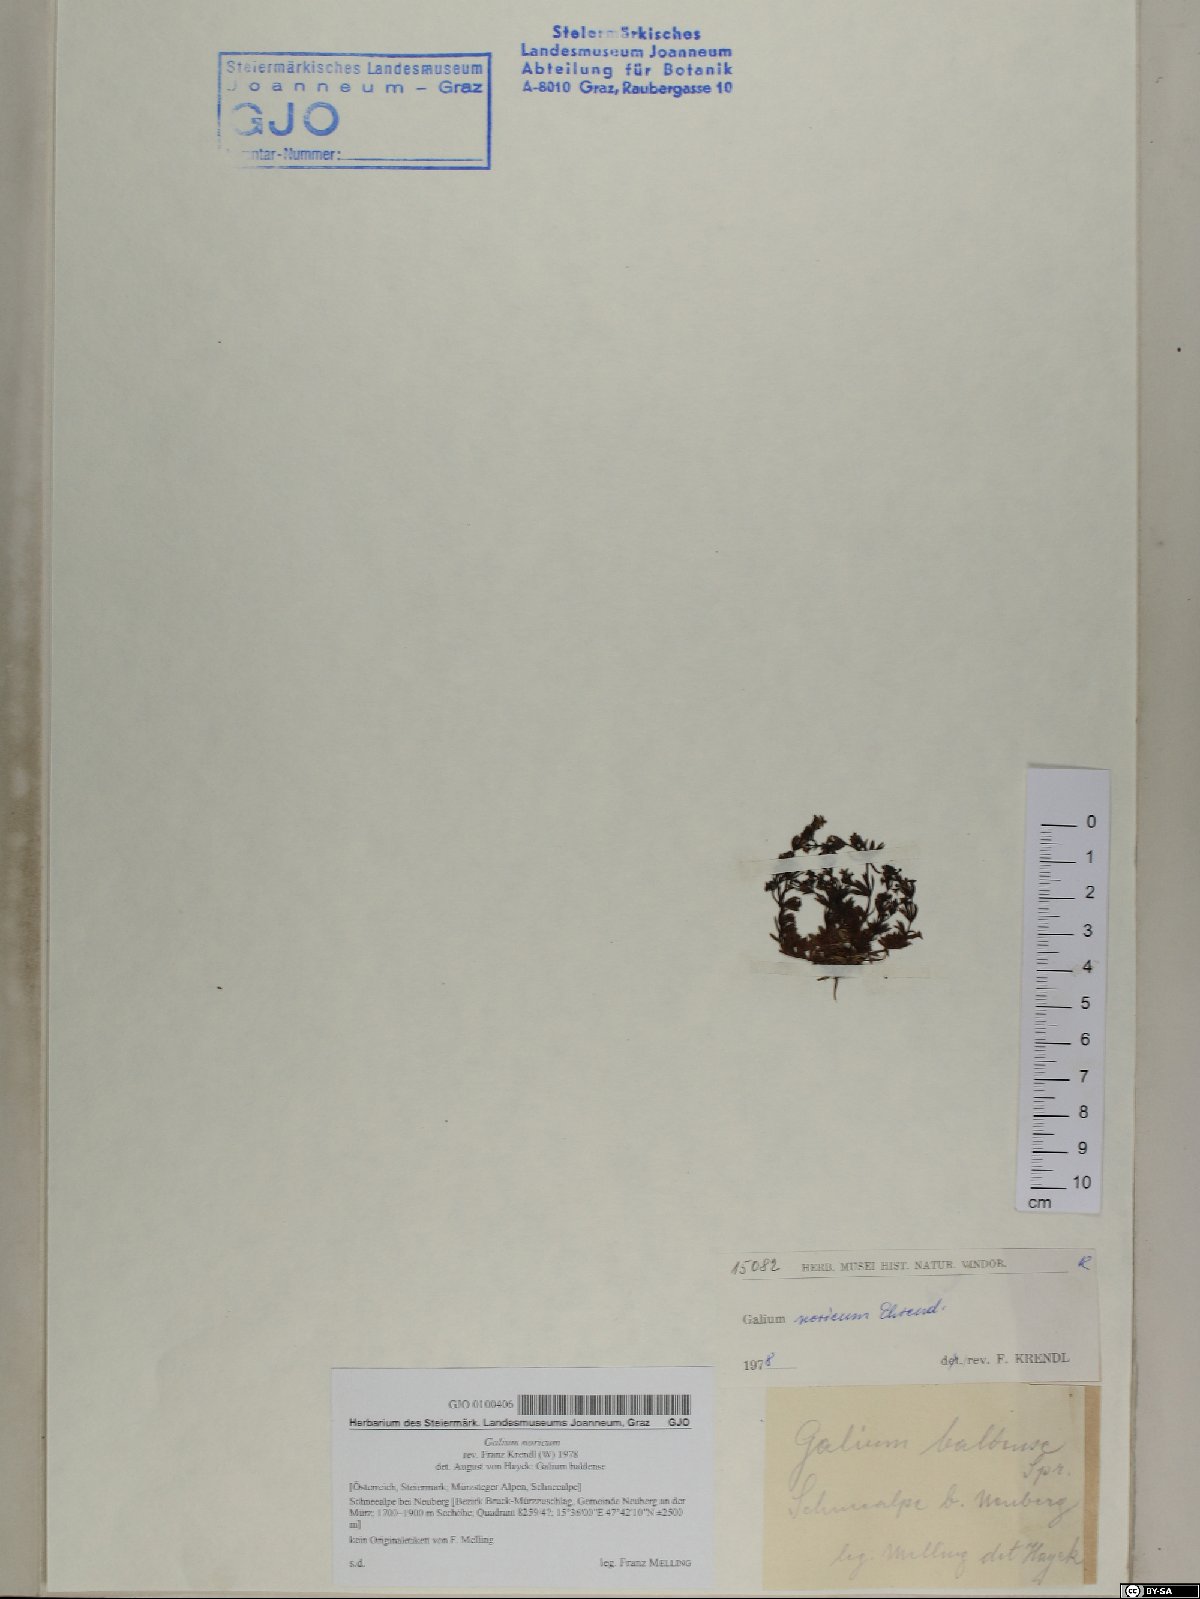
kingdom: Plantae
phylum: Tracheophyta
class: Magnoliopsida
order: Gentianales
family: Rubiaceae
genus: Galium
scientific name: Galium noricum
